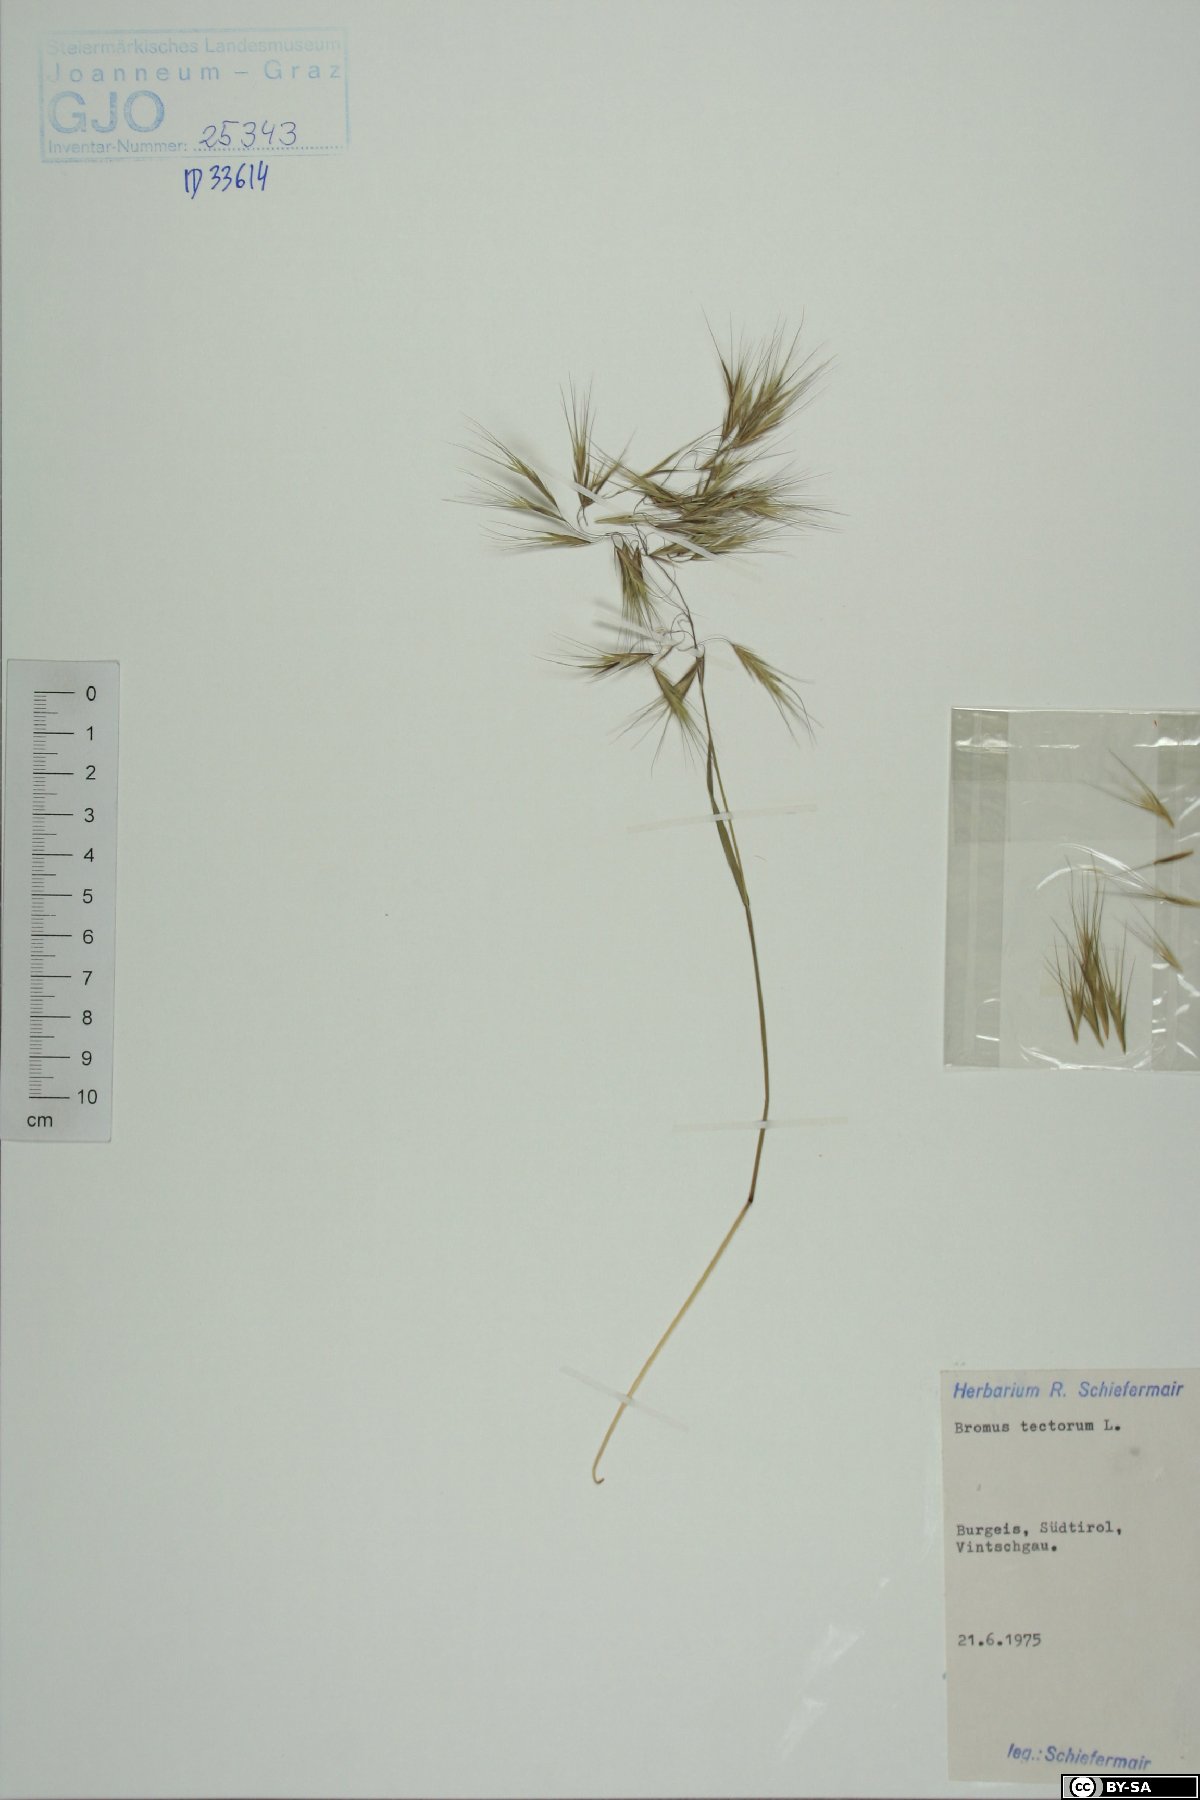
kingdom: Plantae
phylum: Tracheophyta
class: Liliopsida
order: Poales
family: Poaceae
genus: Bromus
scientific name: Bromus tectorum
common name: Cheatgrass
